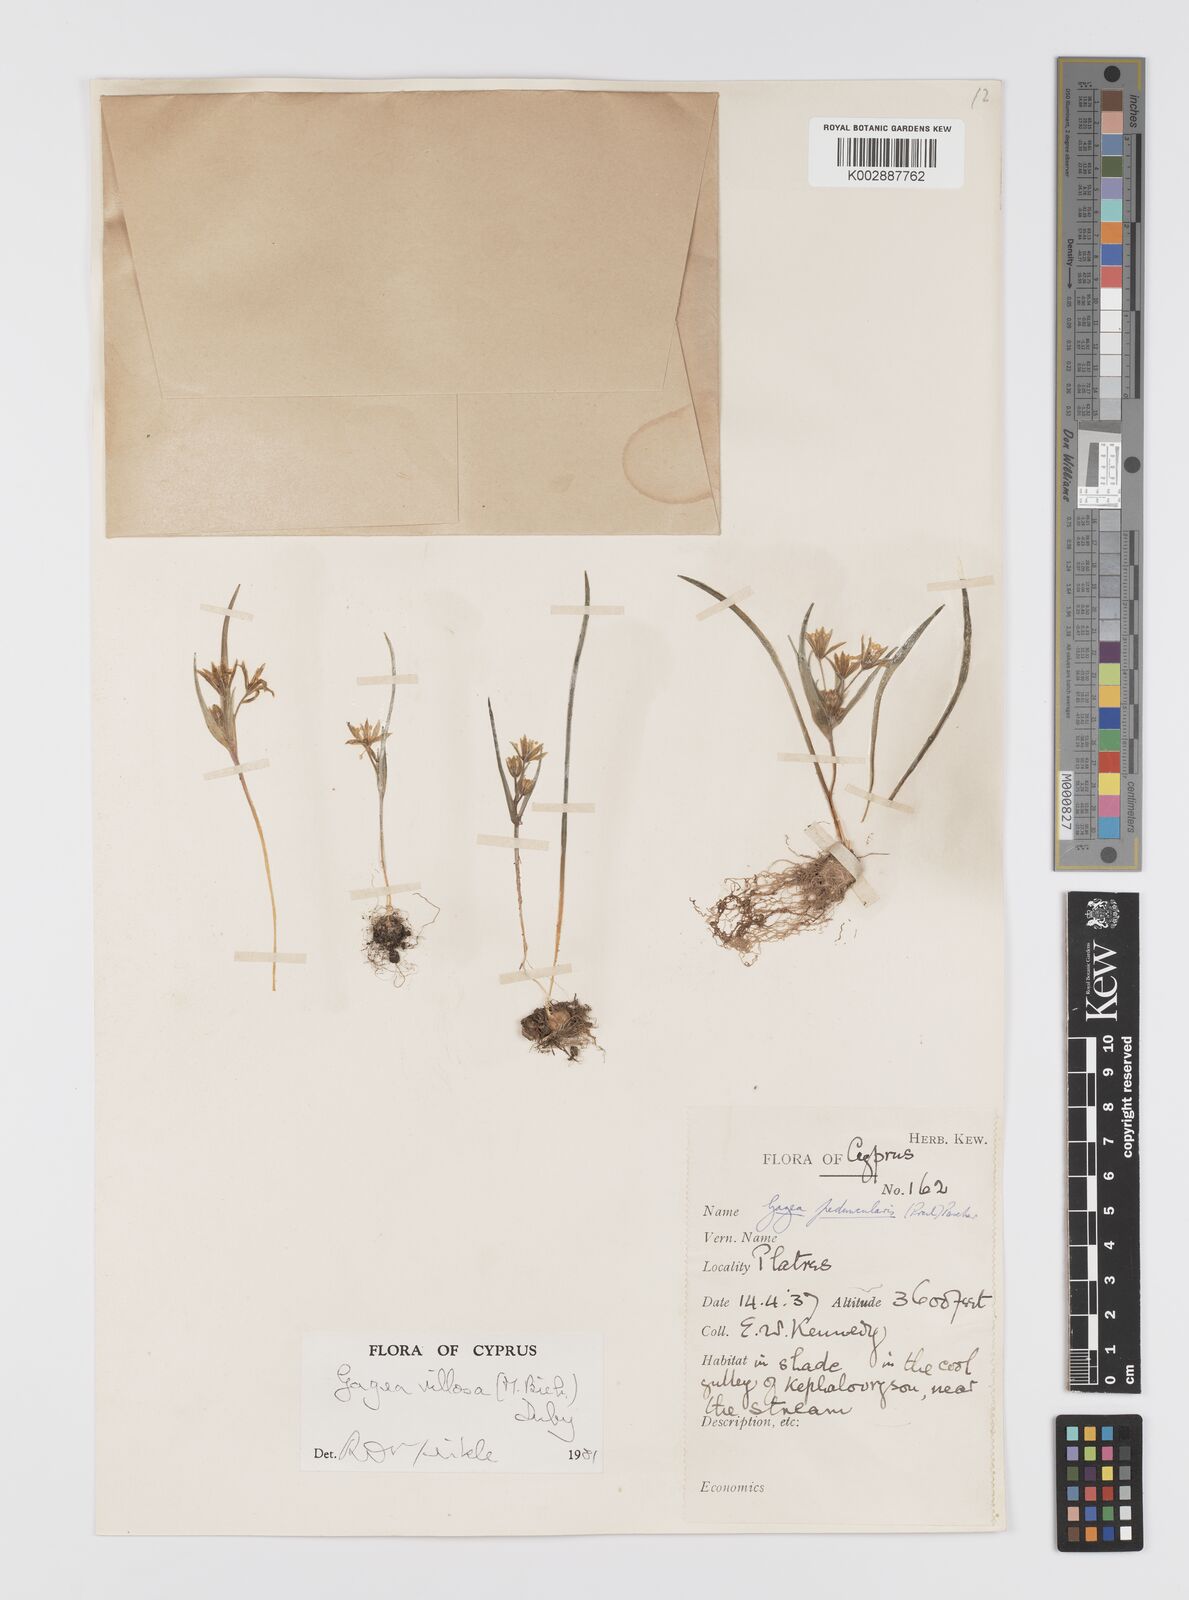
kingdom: Plantae
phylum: Tracheophyta
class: Liliopsida
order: Liliales
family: Liliaceae
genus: Gagea
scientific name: Gagea villosa
